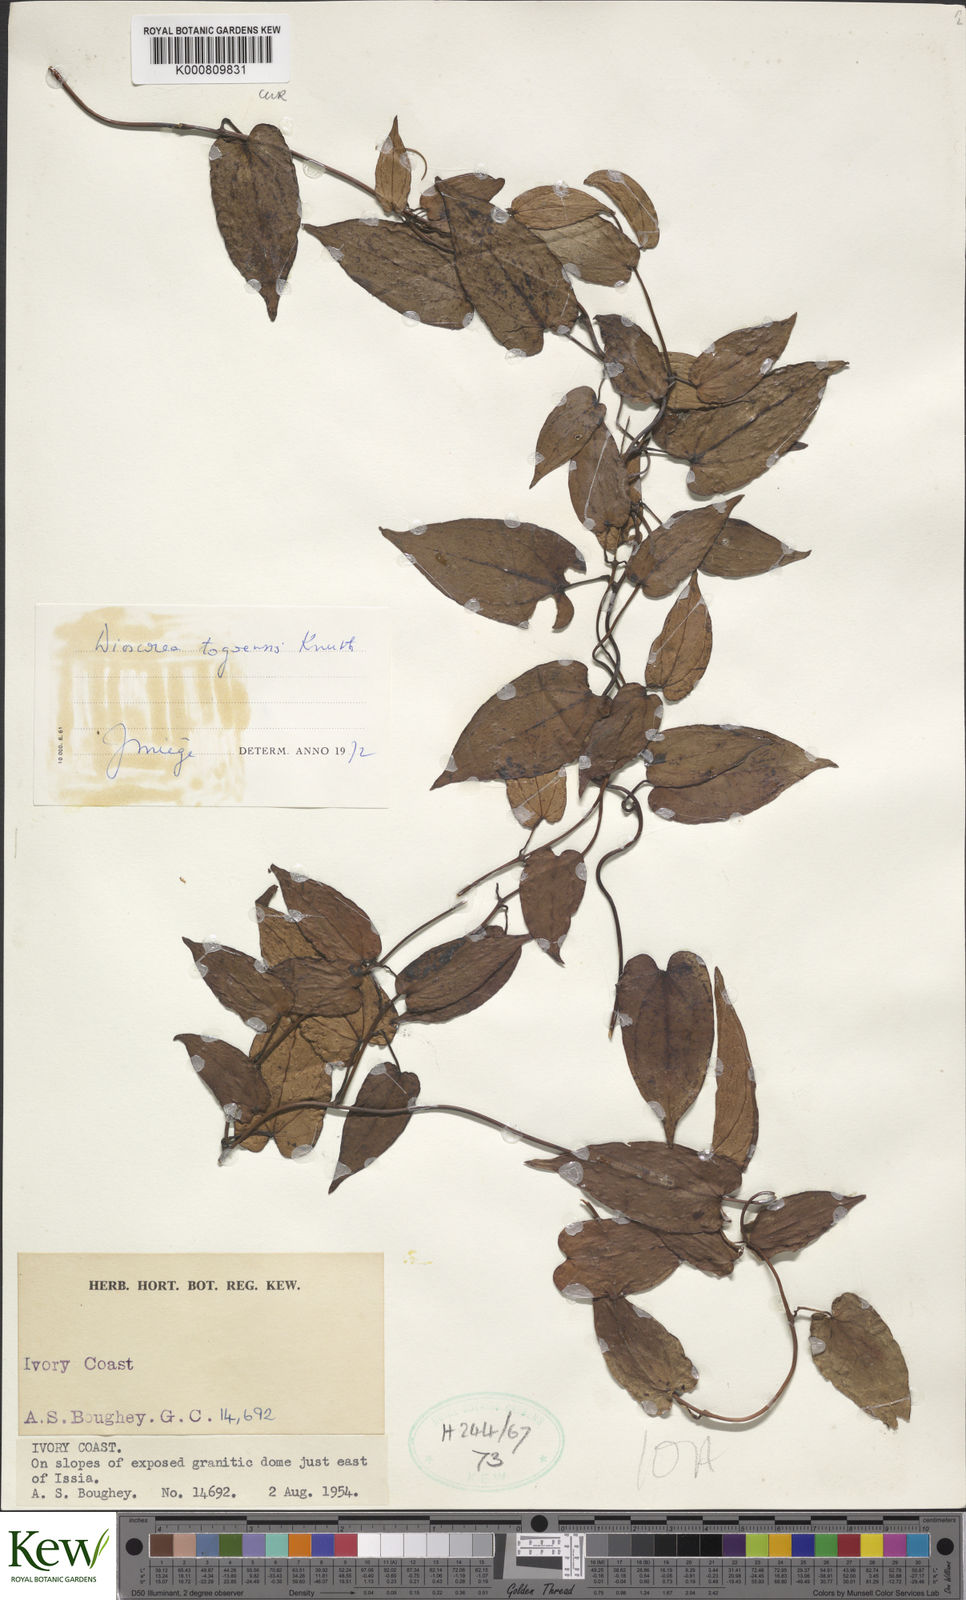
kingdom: Plantae
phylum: Tracheophyta
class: Liliopsida
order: Dioscoreales
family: Dioscoreaceae
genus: Dioscorea
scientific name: Dioscorea togoensis
